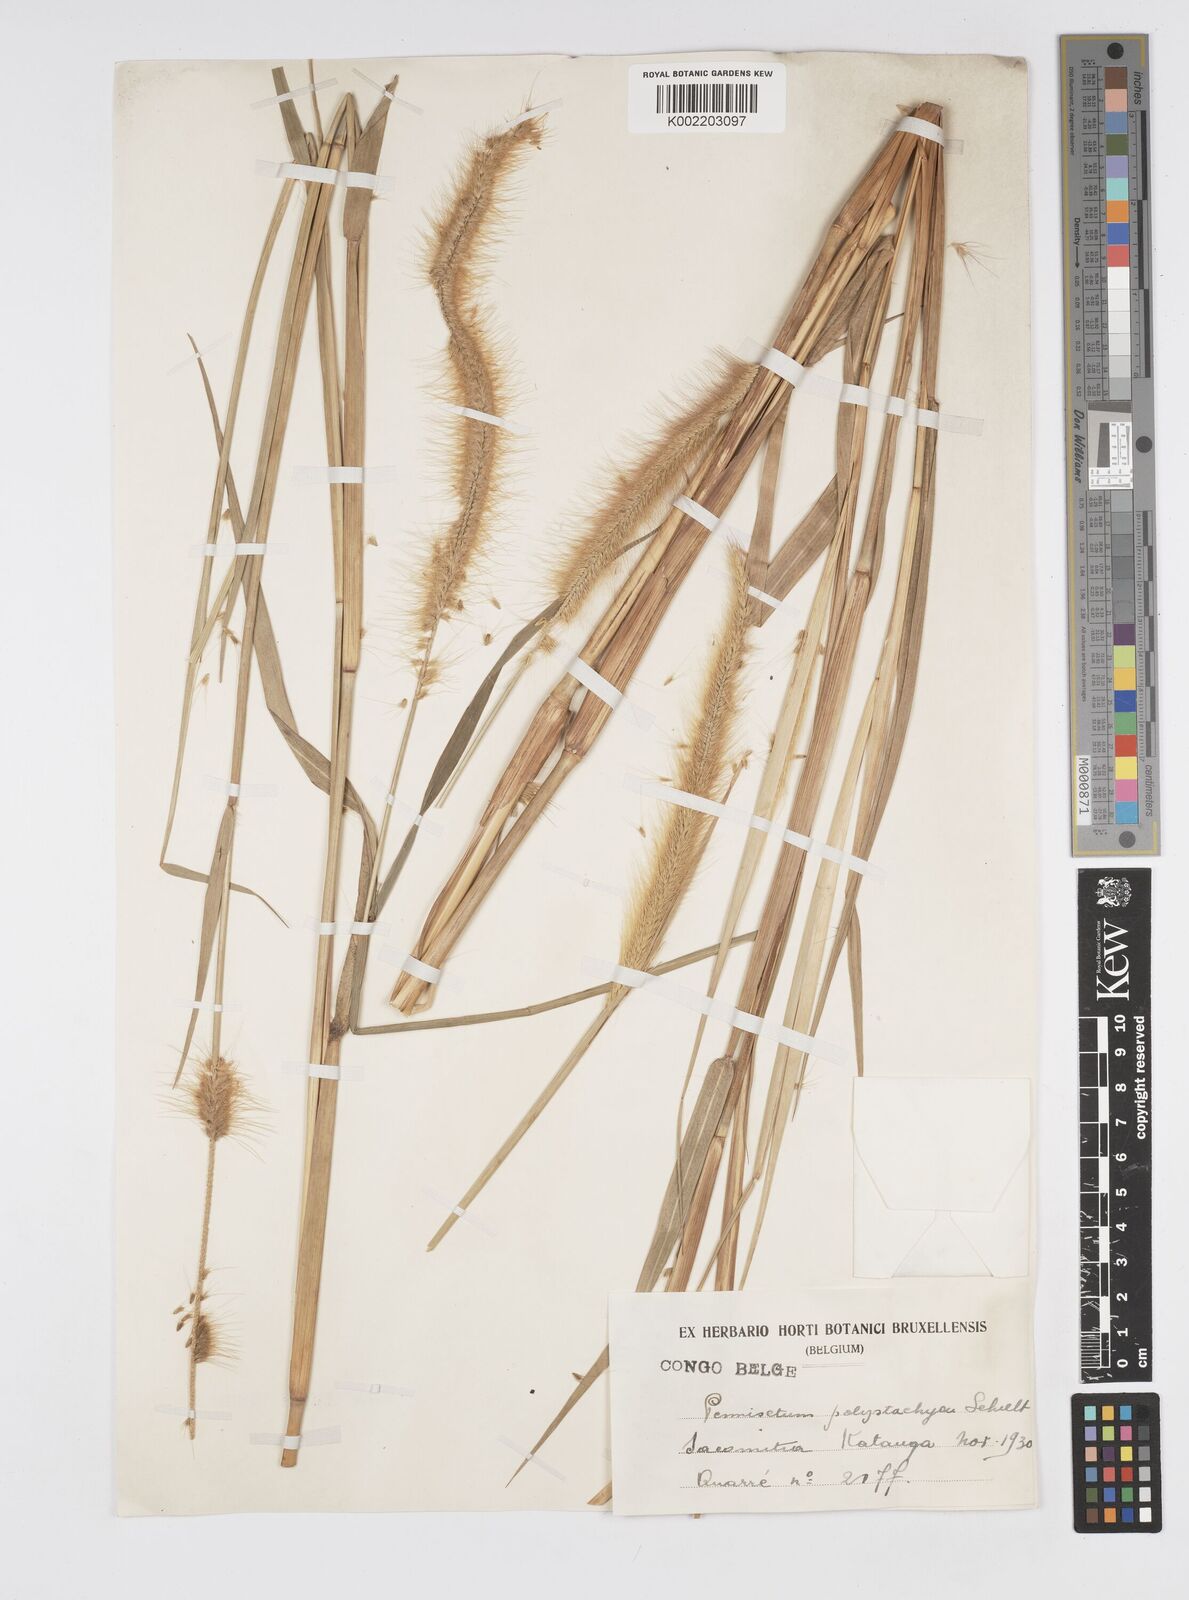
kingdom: Plantae
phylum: Tracheophyta
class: Liliopsida
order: Poales
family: Poaceae
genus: Setaria
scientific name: Setaria parviflora
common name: Knotroot bristle-grass
